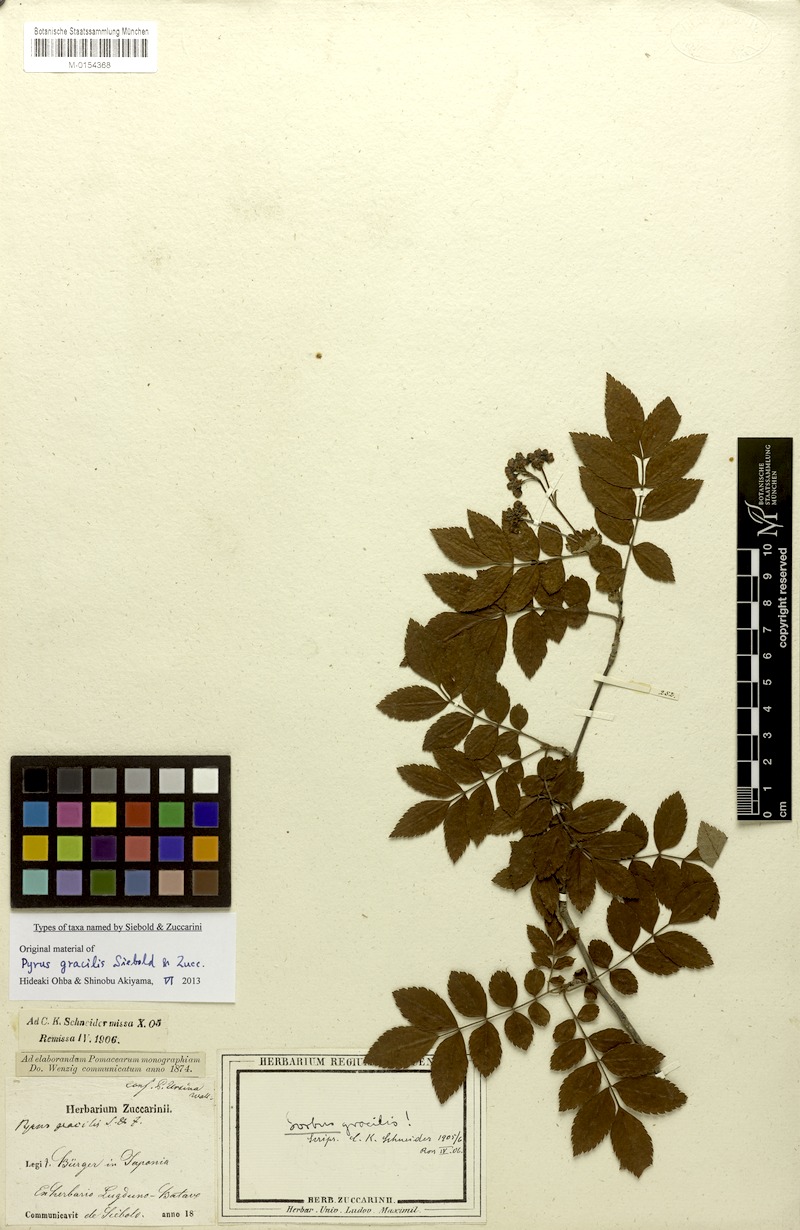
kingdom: Plantae
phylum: Tracheophyta
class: Magnoliopsida
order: Rosales
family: Rosaceae
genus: Sorbus
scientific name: Sorbus gracilis
